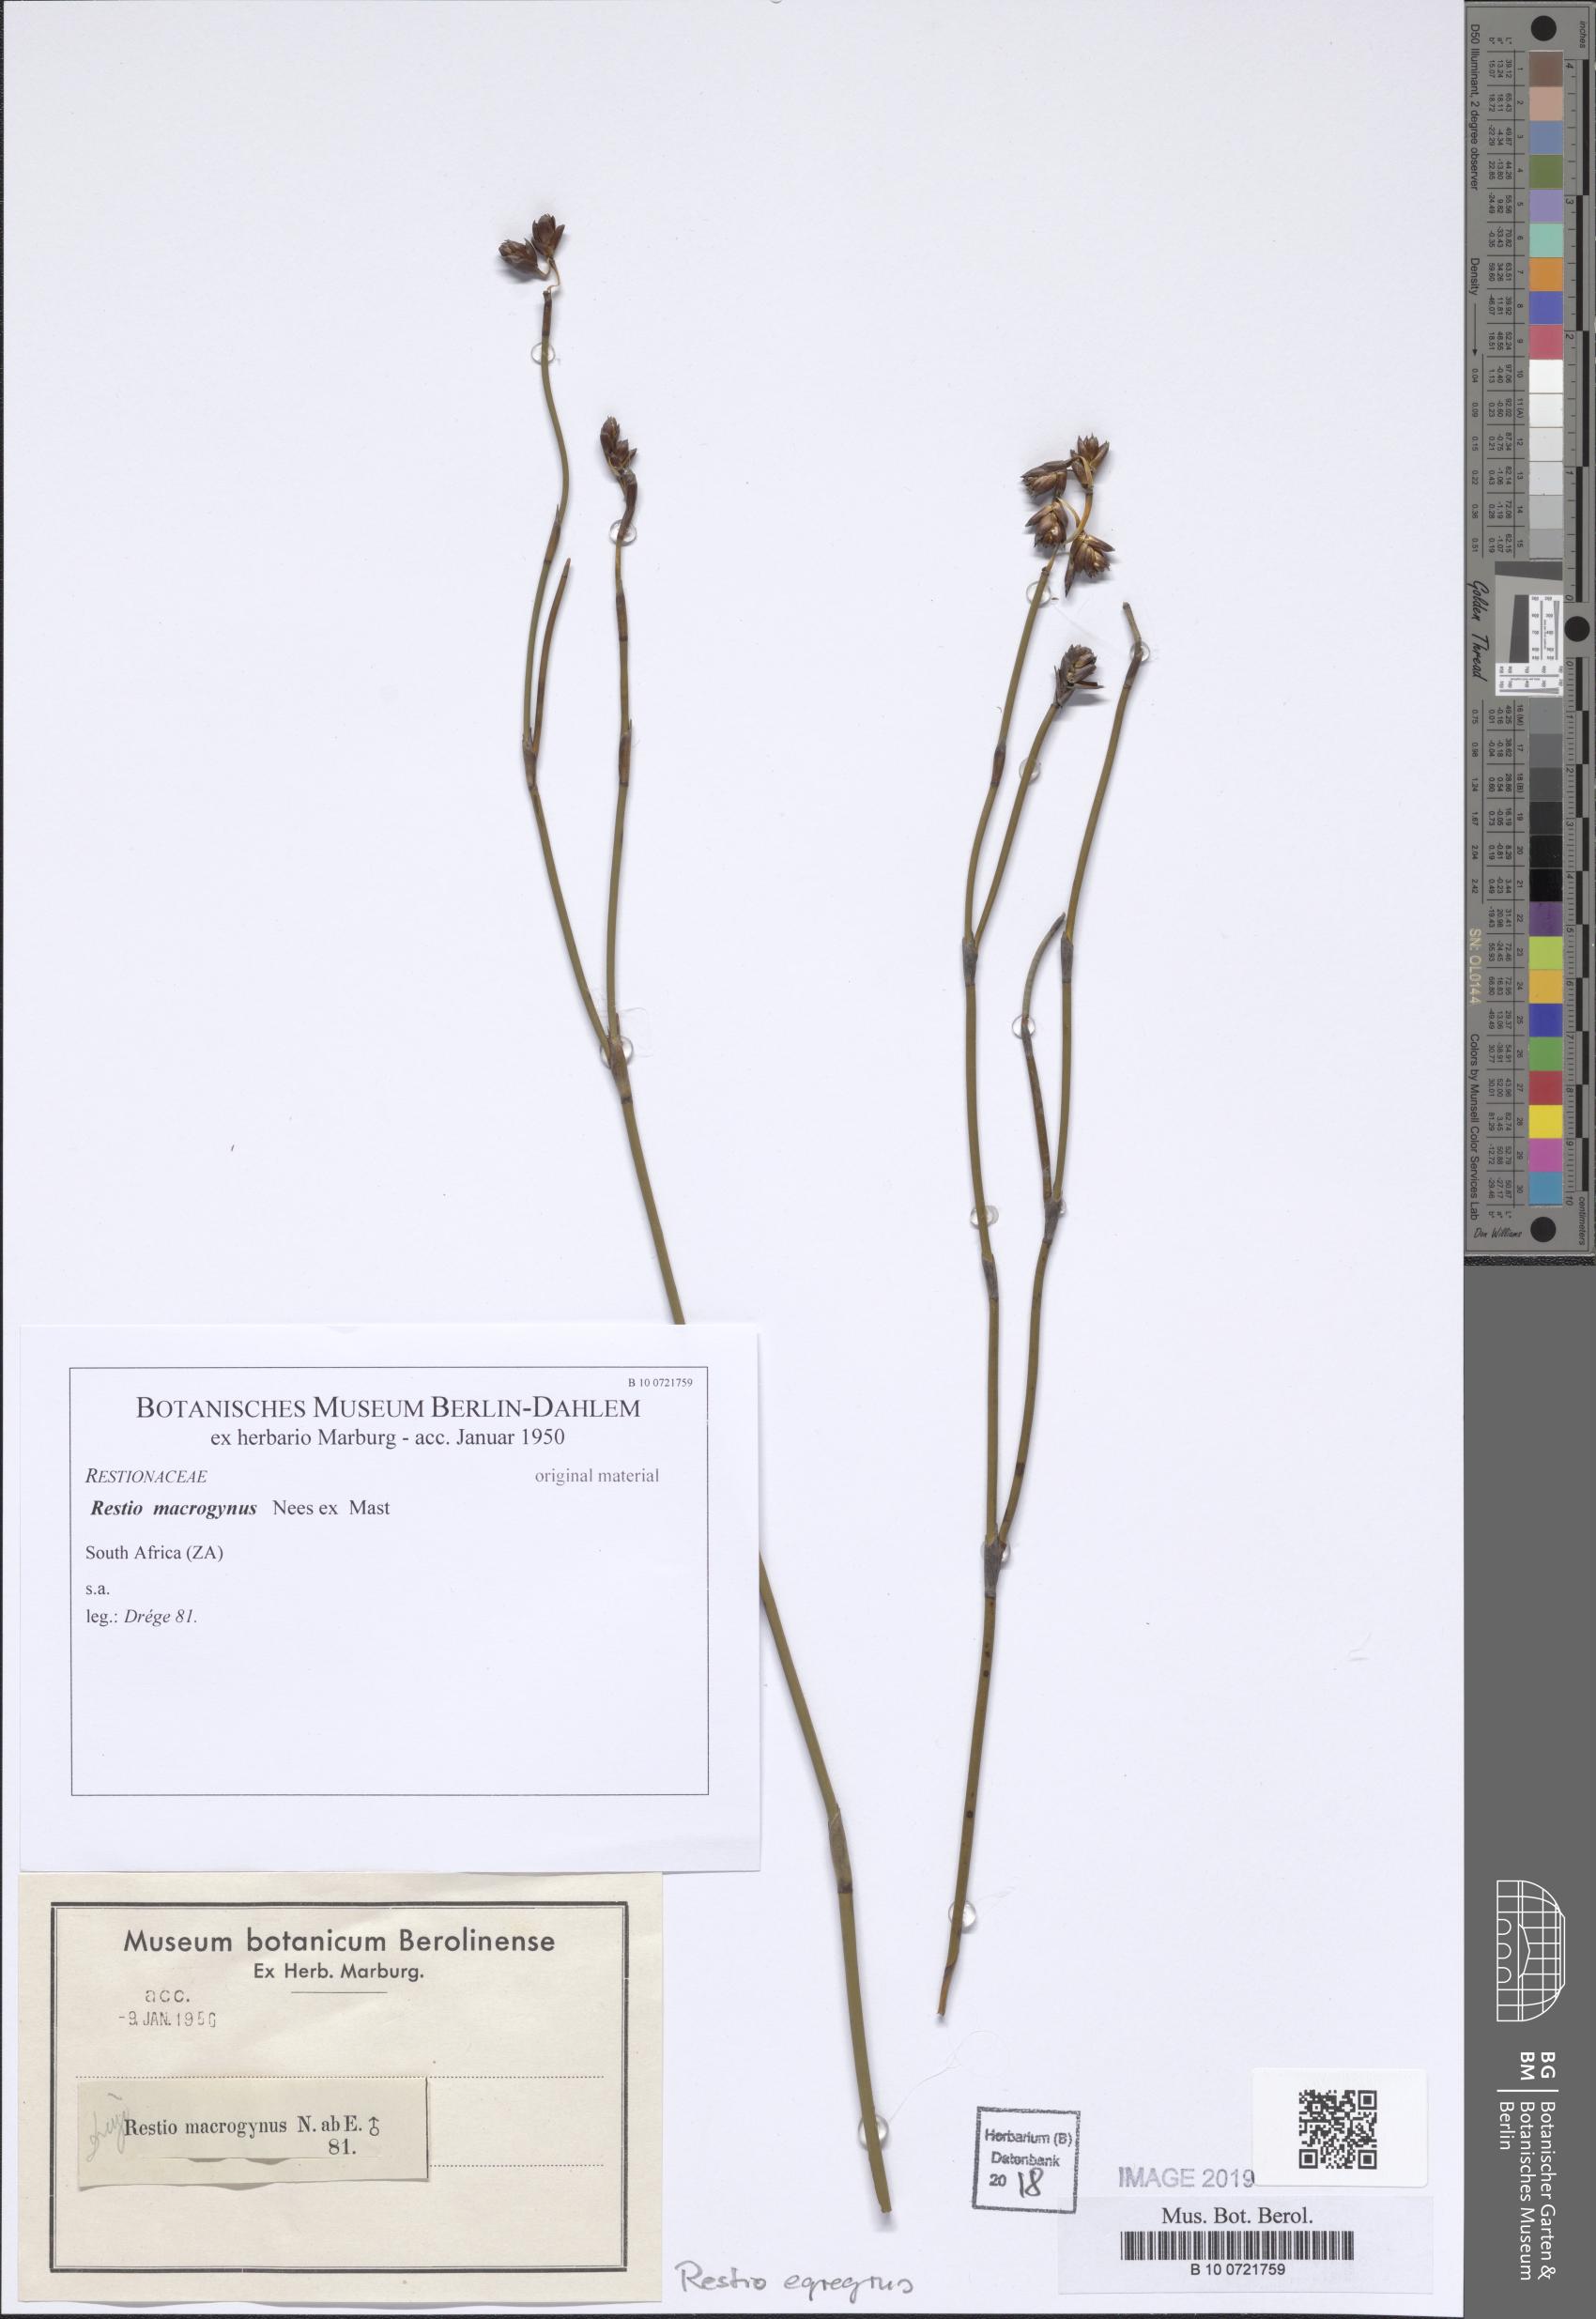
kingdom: Plantae
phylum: Tracheophyta
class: Liliopsida
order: Poales
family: Restionaceae
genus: Restio
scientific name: Restio egregius
